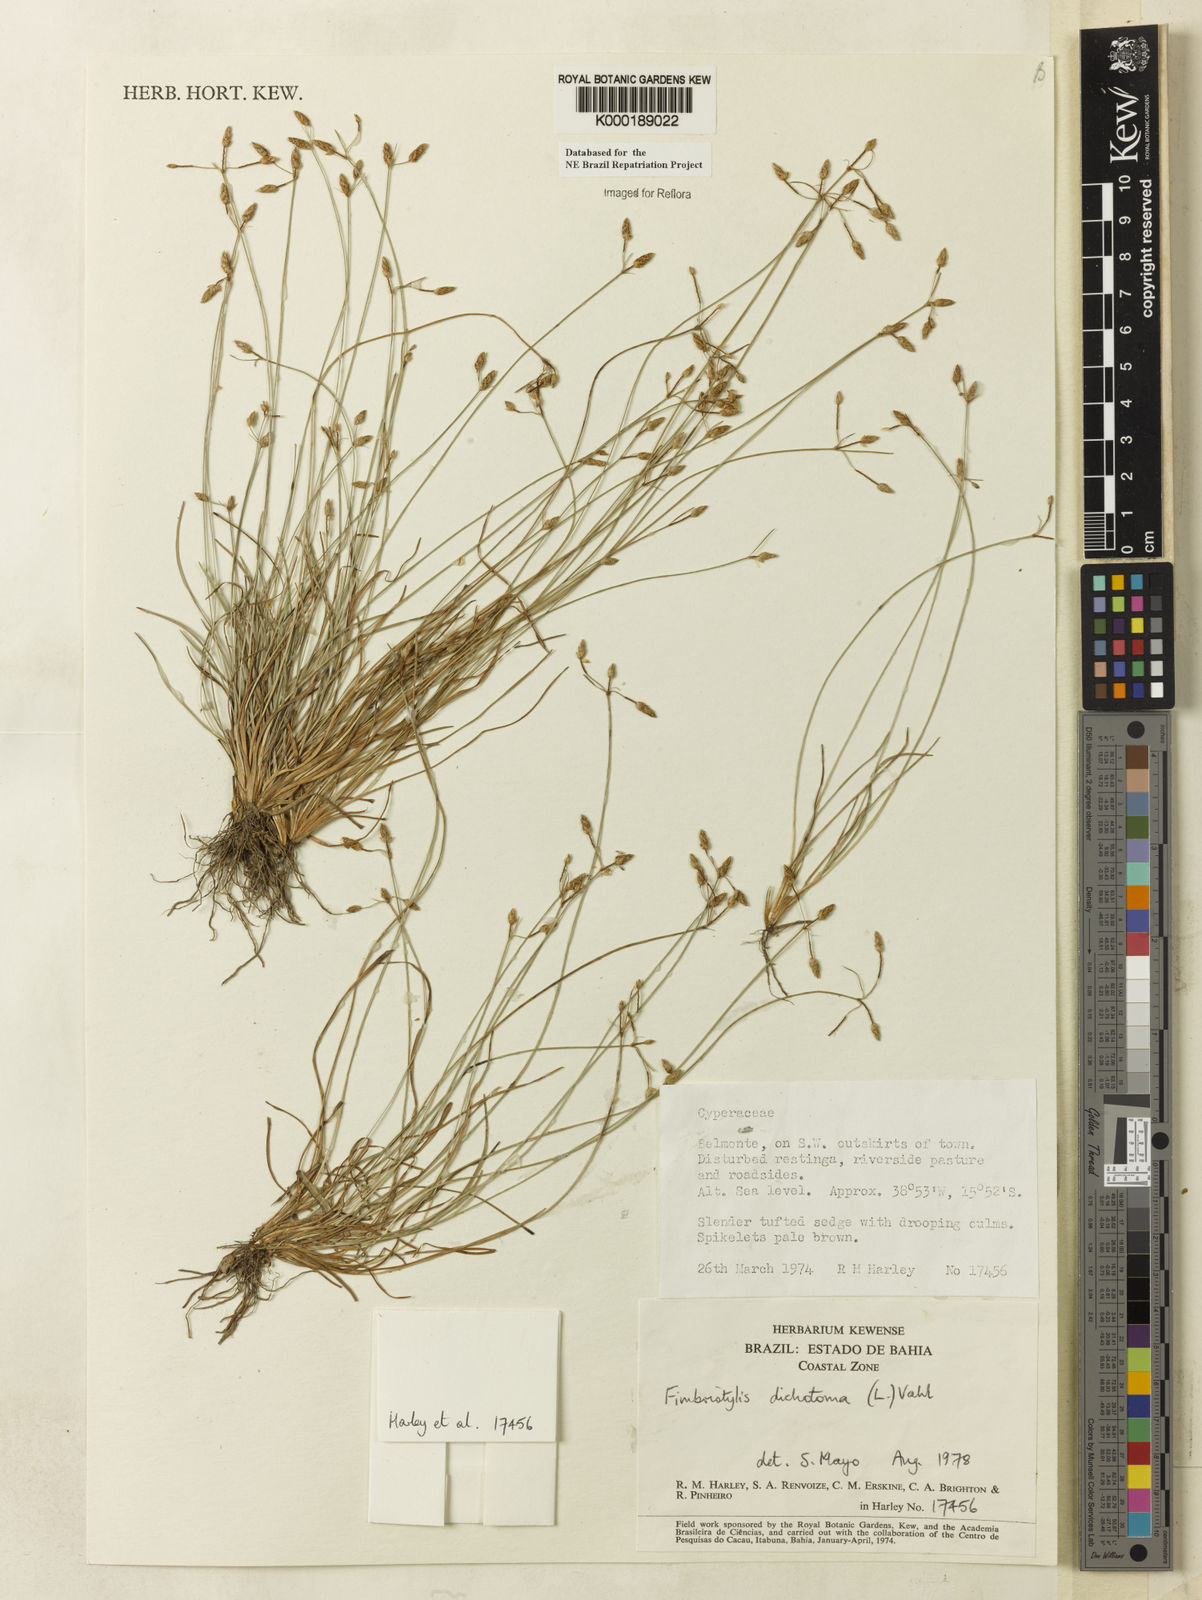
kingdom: Plantae
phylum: Tracheophyta
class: Liliopsida
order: Poales
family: Cyperaceae
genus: Fimbristylis
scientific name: Fimbristylis dichotoma
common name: Forked fimbry
